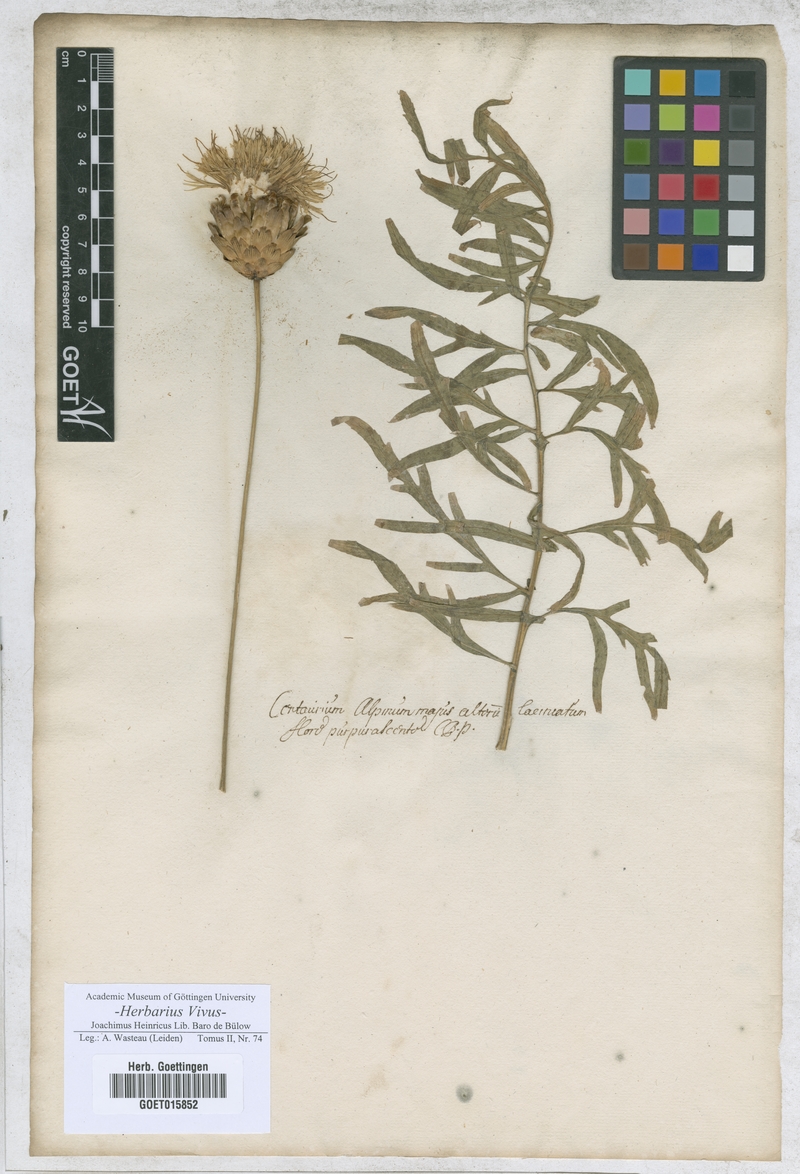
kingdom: Plantae
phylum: Tracheophyta
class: Magnoliopsida
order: Asterales
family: Asteraceae
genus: Centaurea
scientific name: Centaurea
